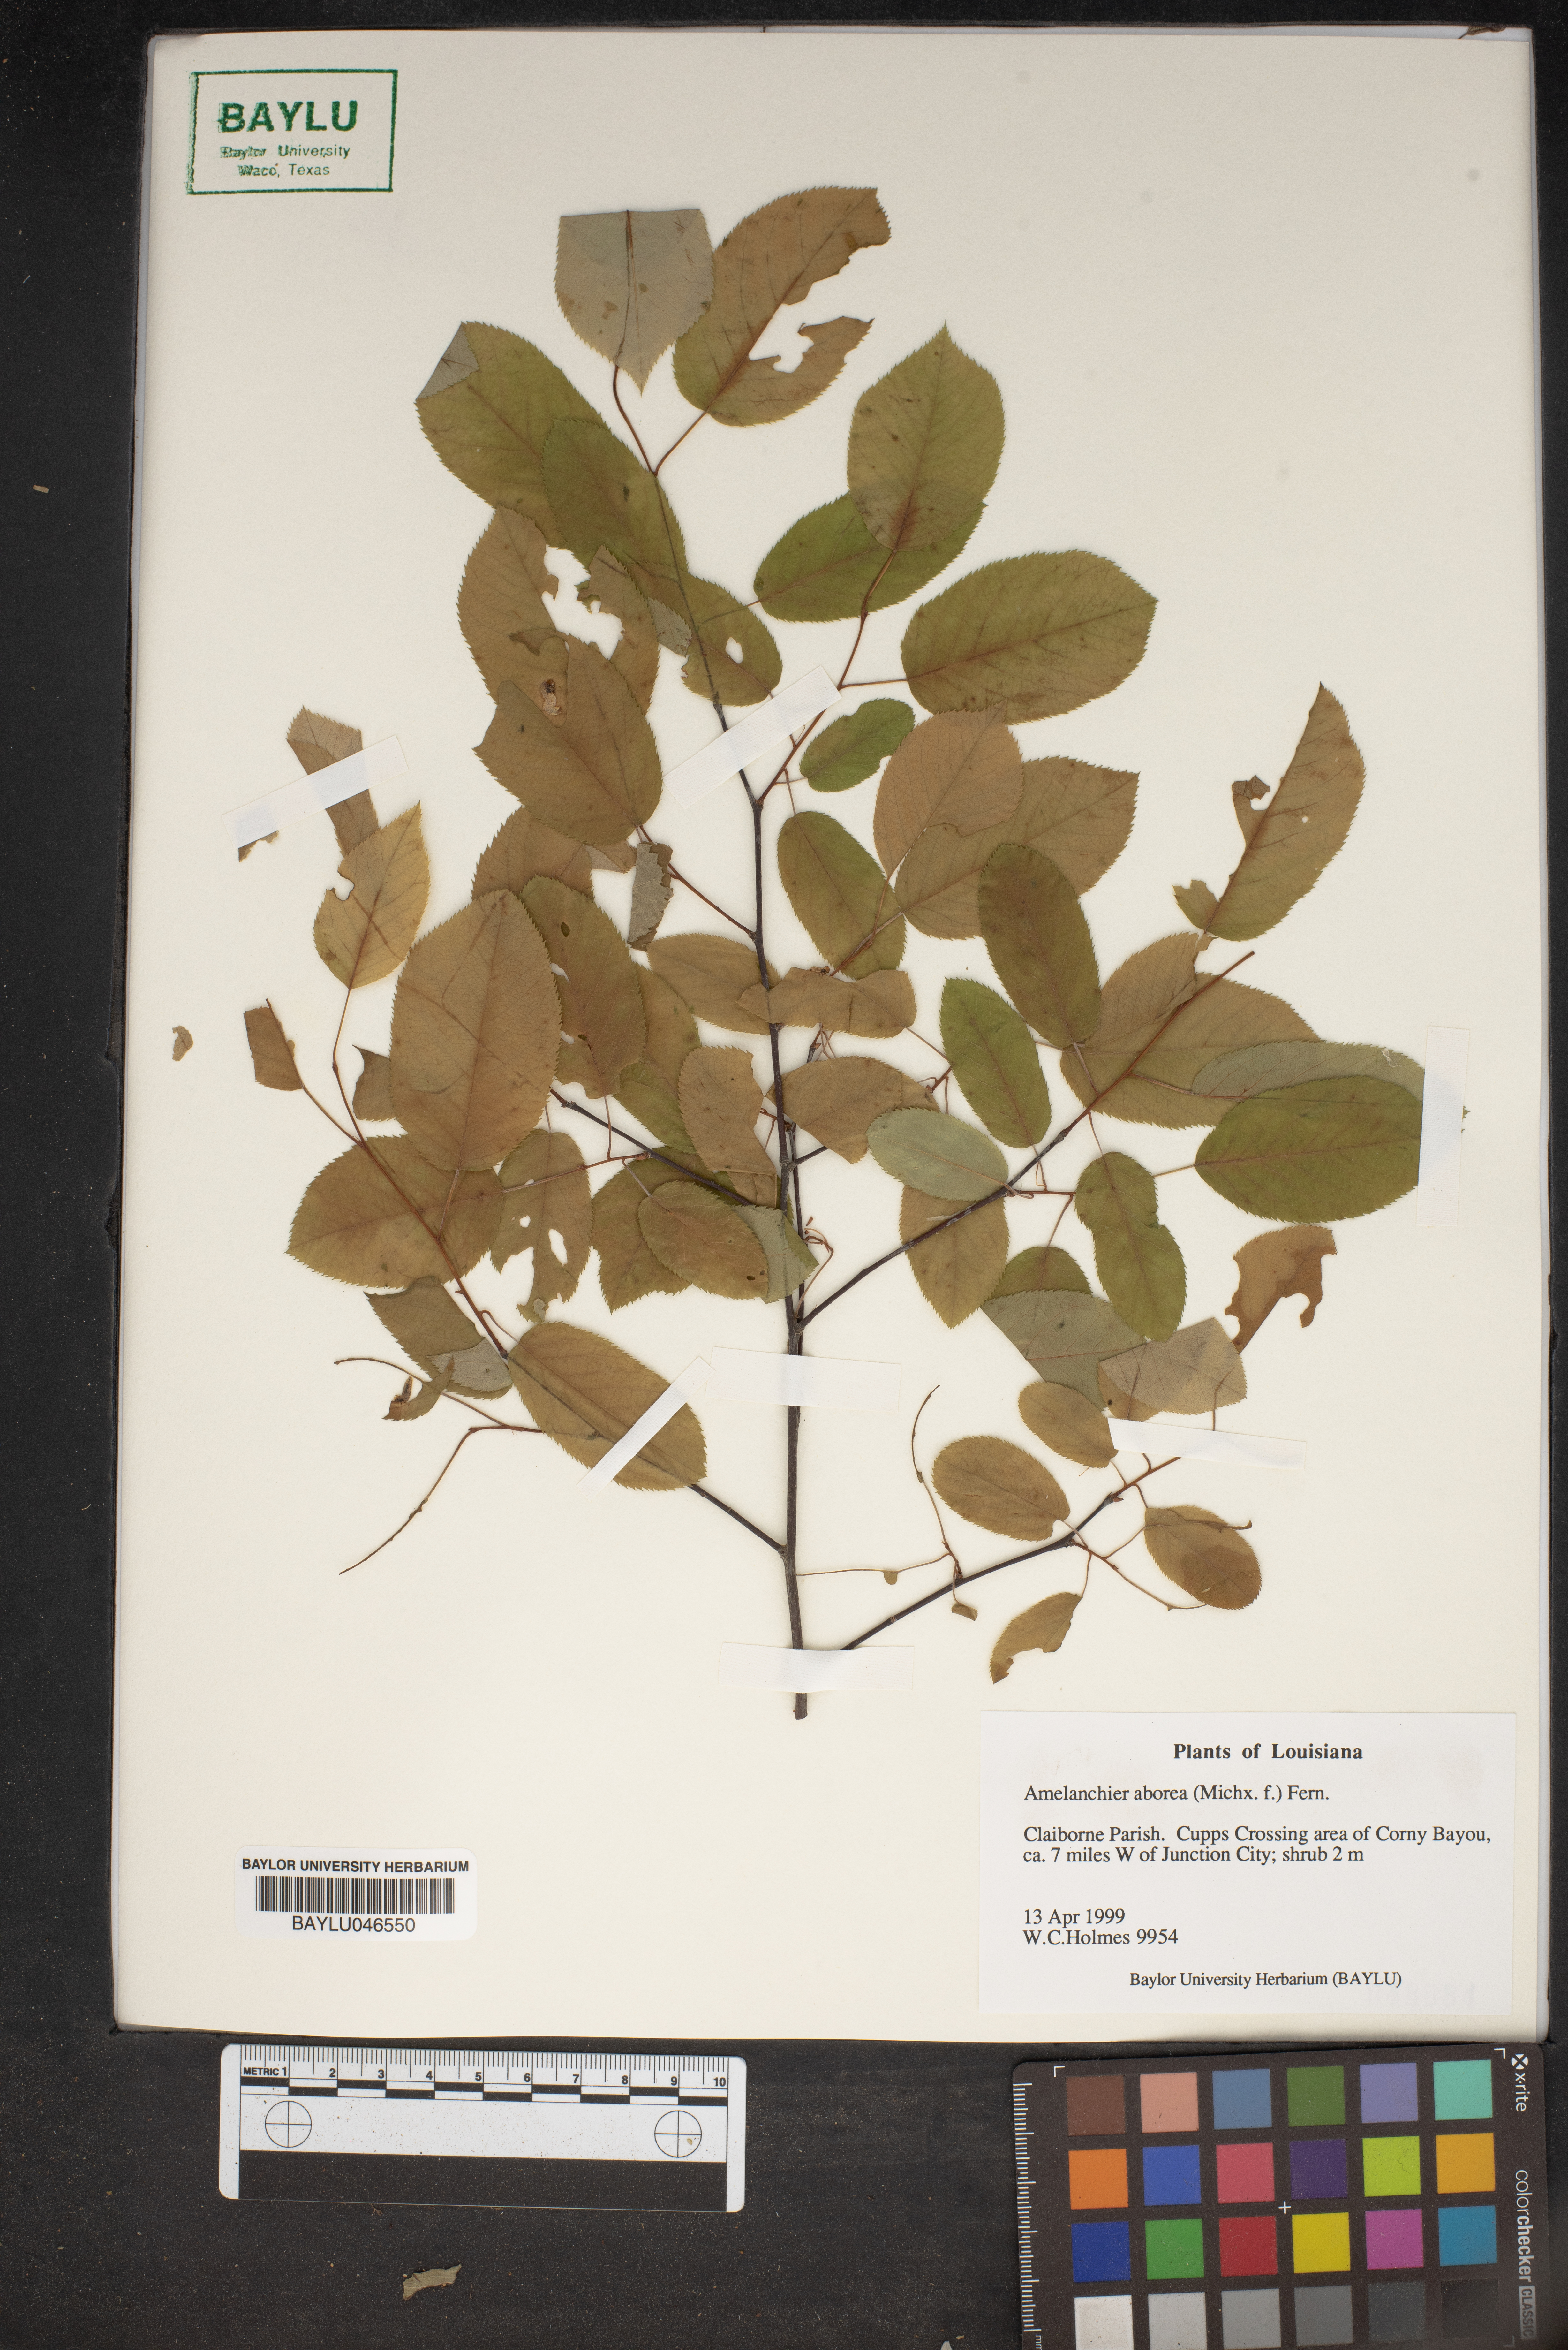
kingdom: Plantae
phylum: Tracheophyta
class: Magnoliopsida
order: Rosales
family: Rosaceae
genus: Amelanchier
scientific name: Amelanchier arborea
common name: Downy serviceberry
